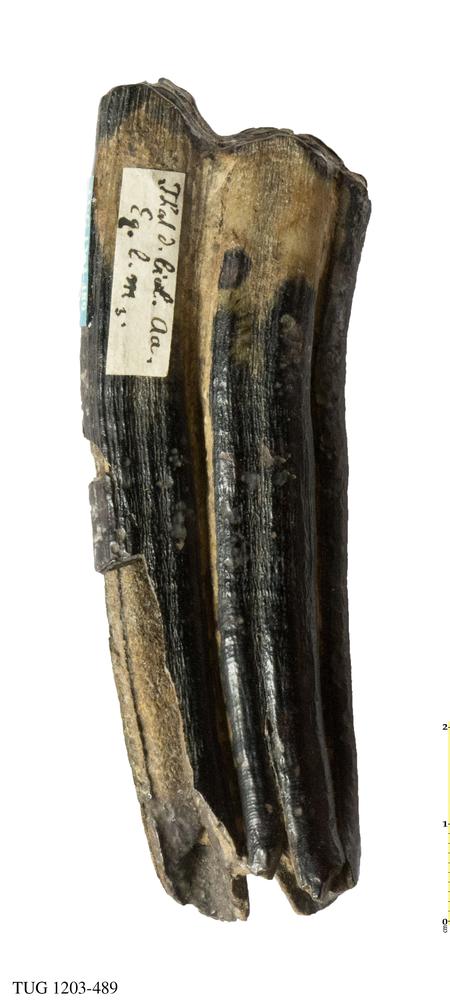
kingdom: Animalia
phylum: Chordata
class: Mammalia
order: Perissodactyla
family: Equidae
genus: Equus
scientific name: Equus
